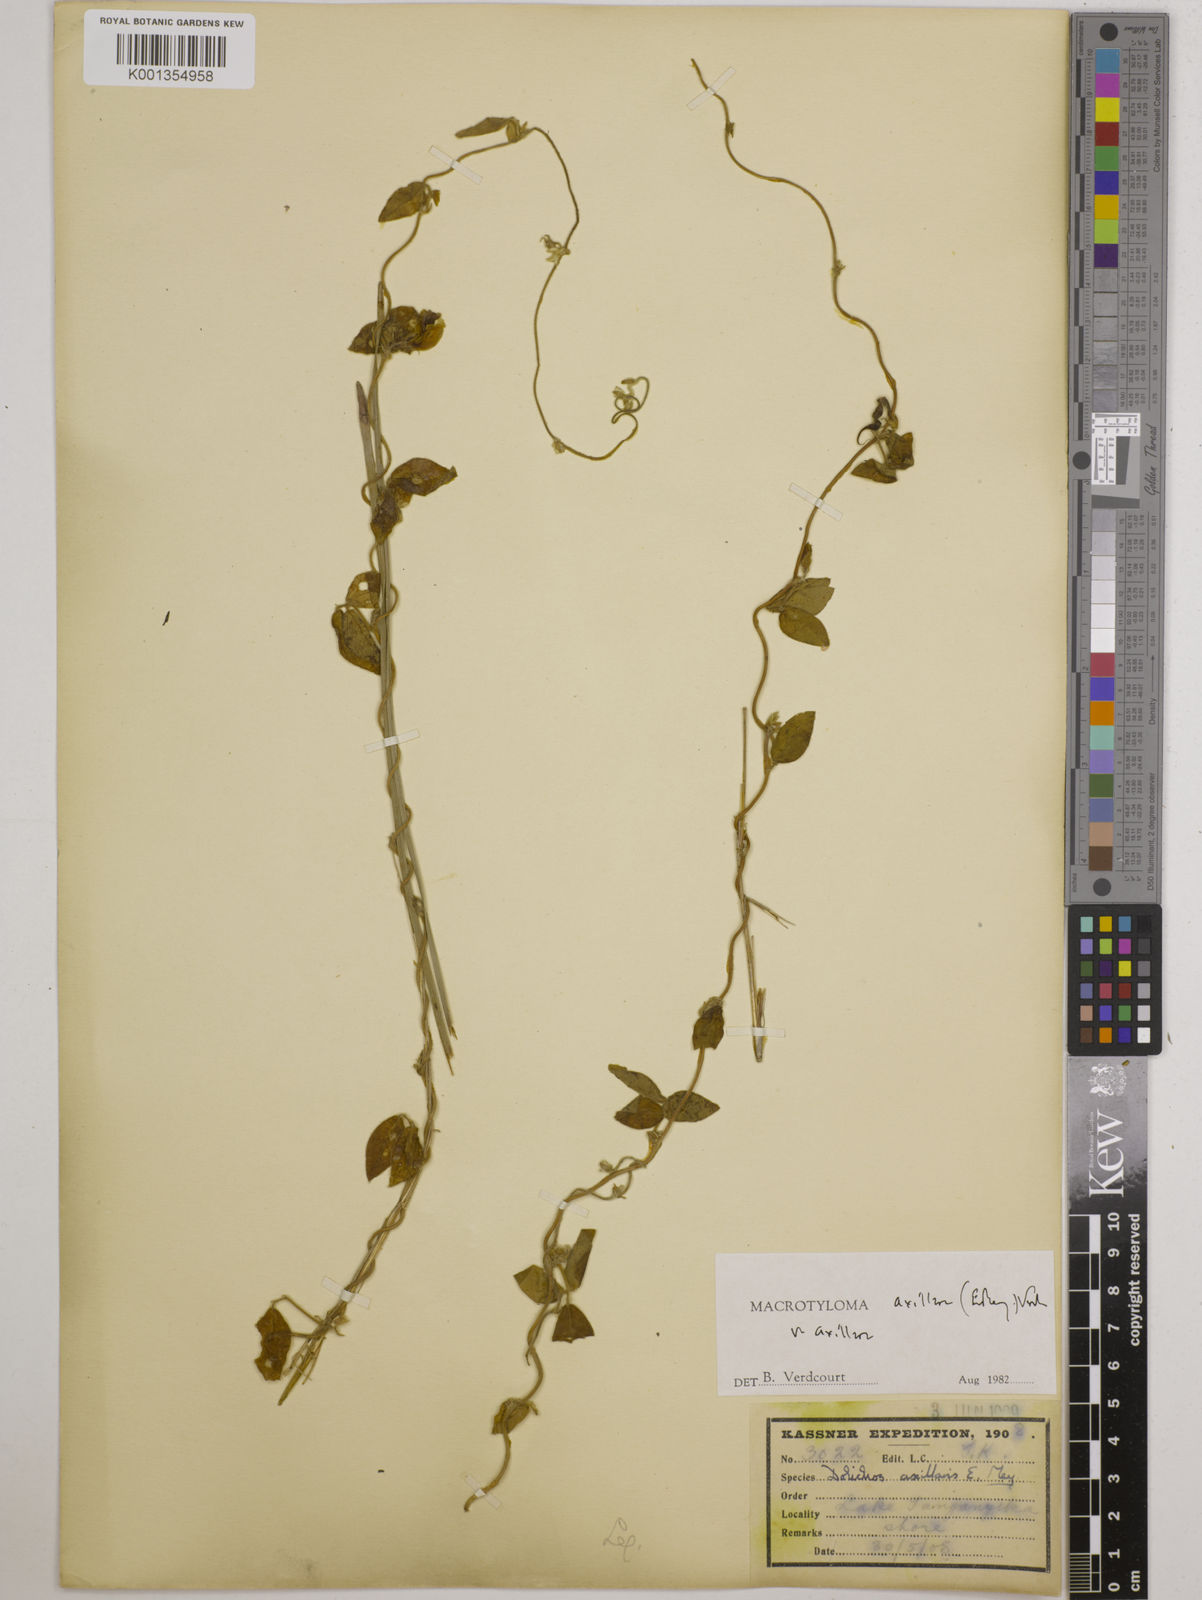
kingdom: Plantae
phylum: Tracheophyta
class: Magnoliopsida
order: Fabales
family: Fabaceae
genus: Macrotyloma
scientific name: Macrotyloma axillare
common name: Perennial horsegram
